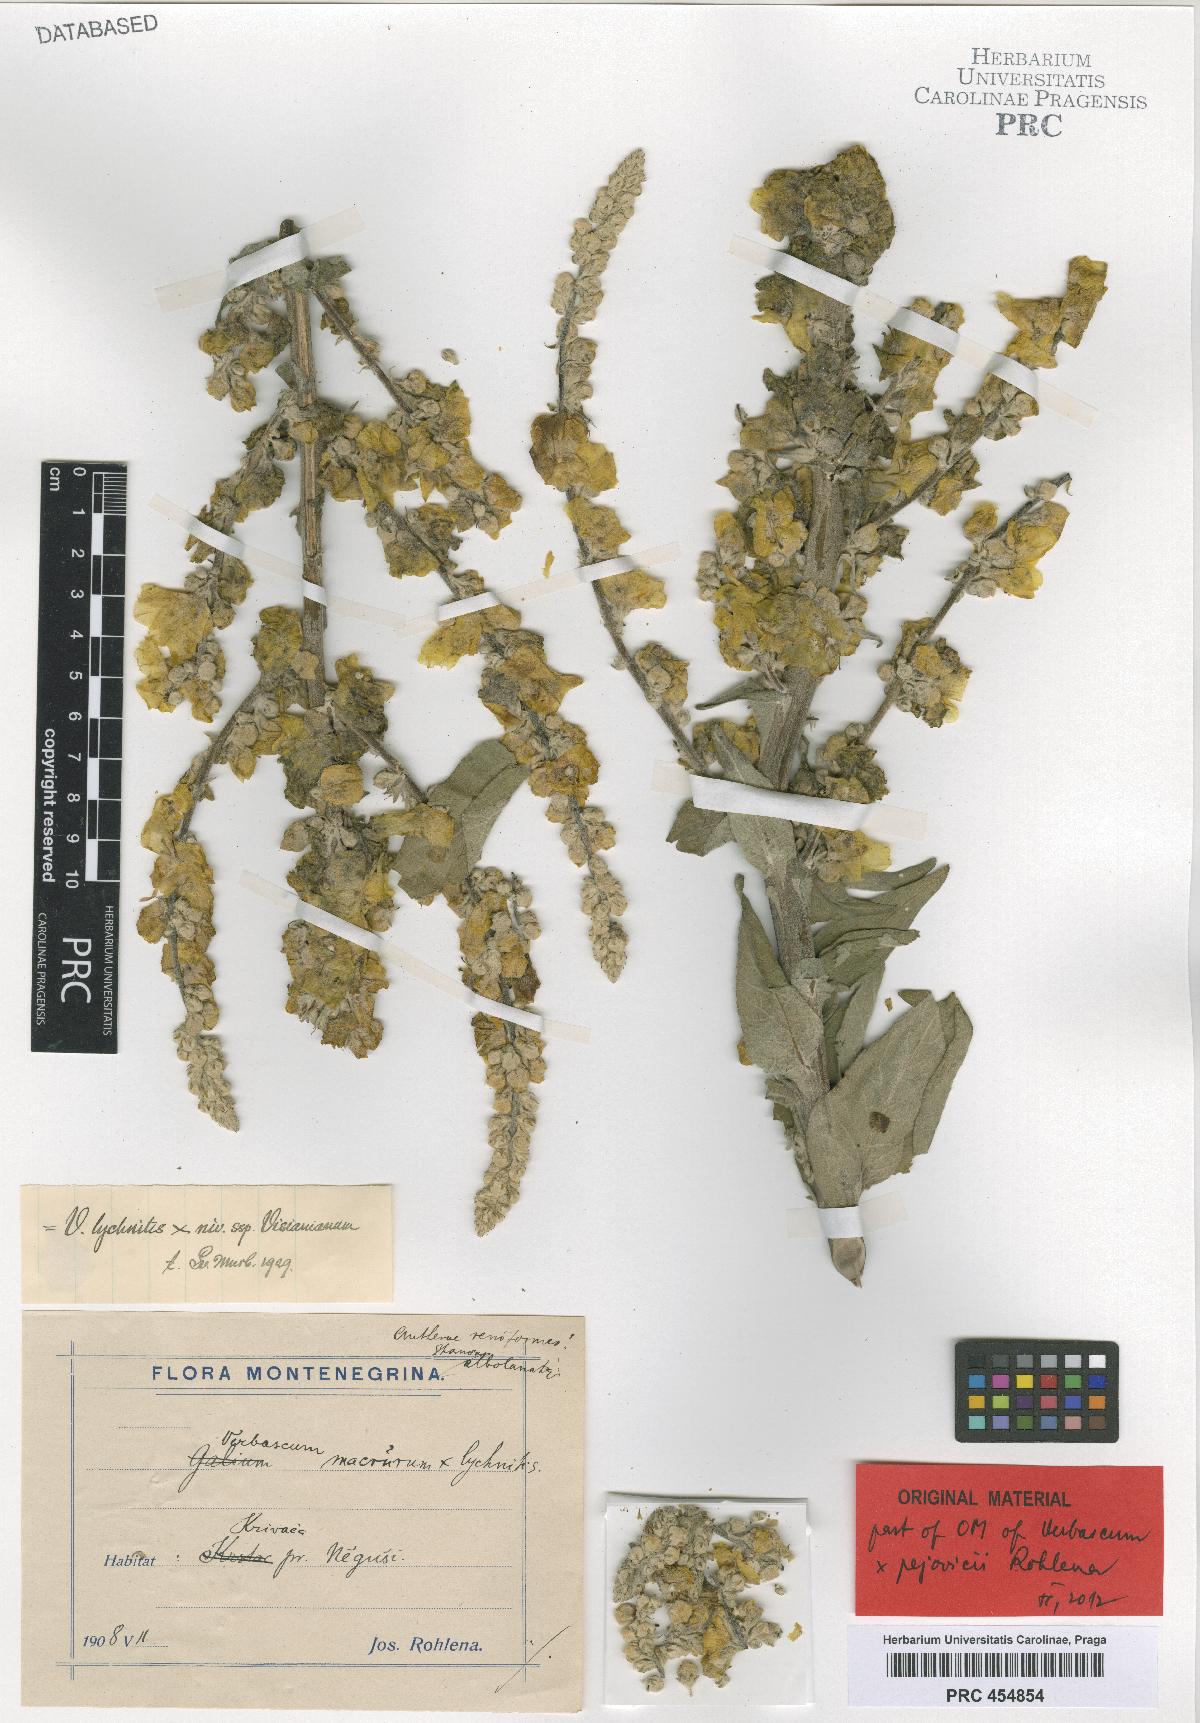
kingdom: Plantae
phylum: Tracheophyta
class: Magnoliopsida
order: Lamiales
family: Scrophulariaceae
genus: Verbascum
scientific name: Verbascum congestum
